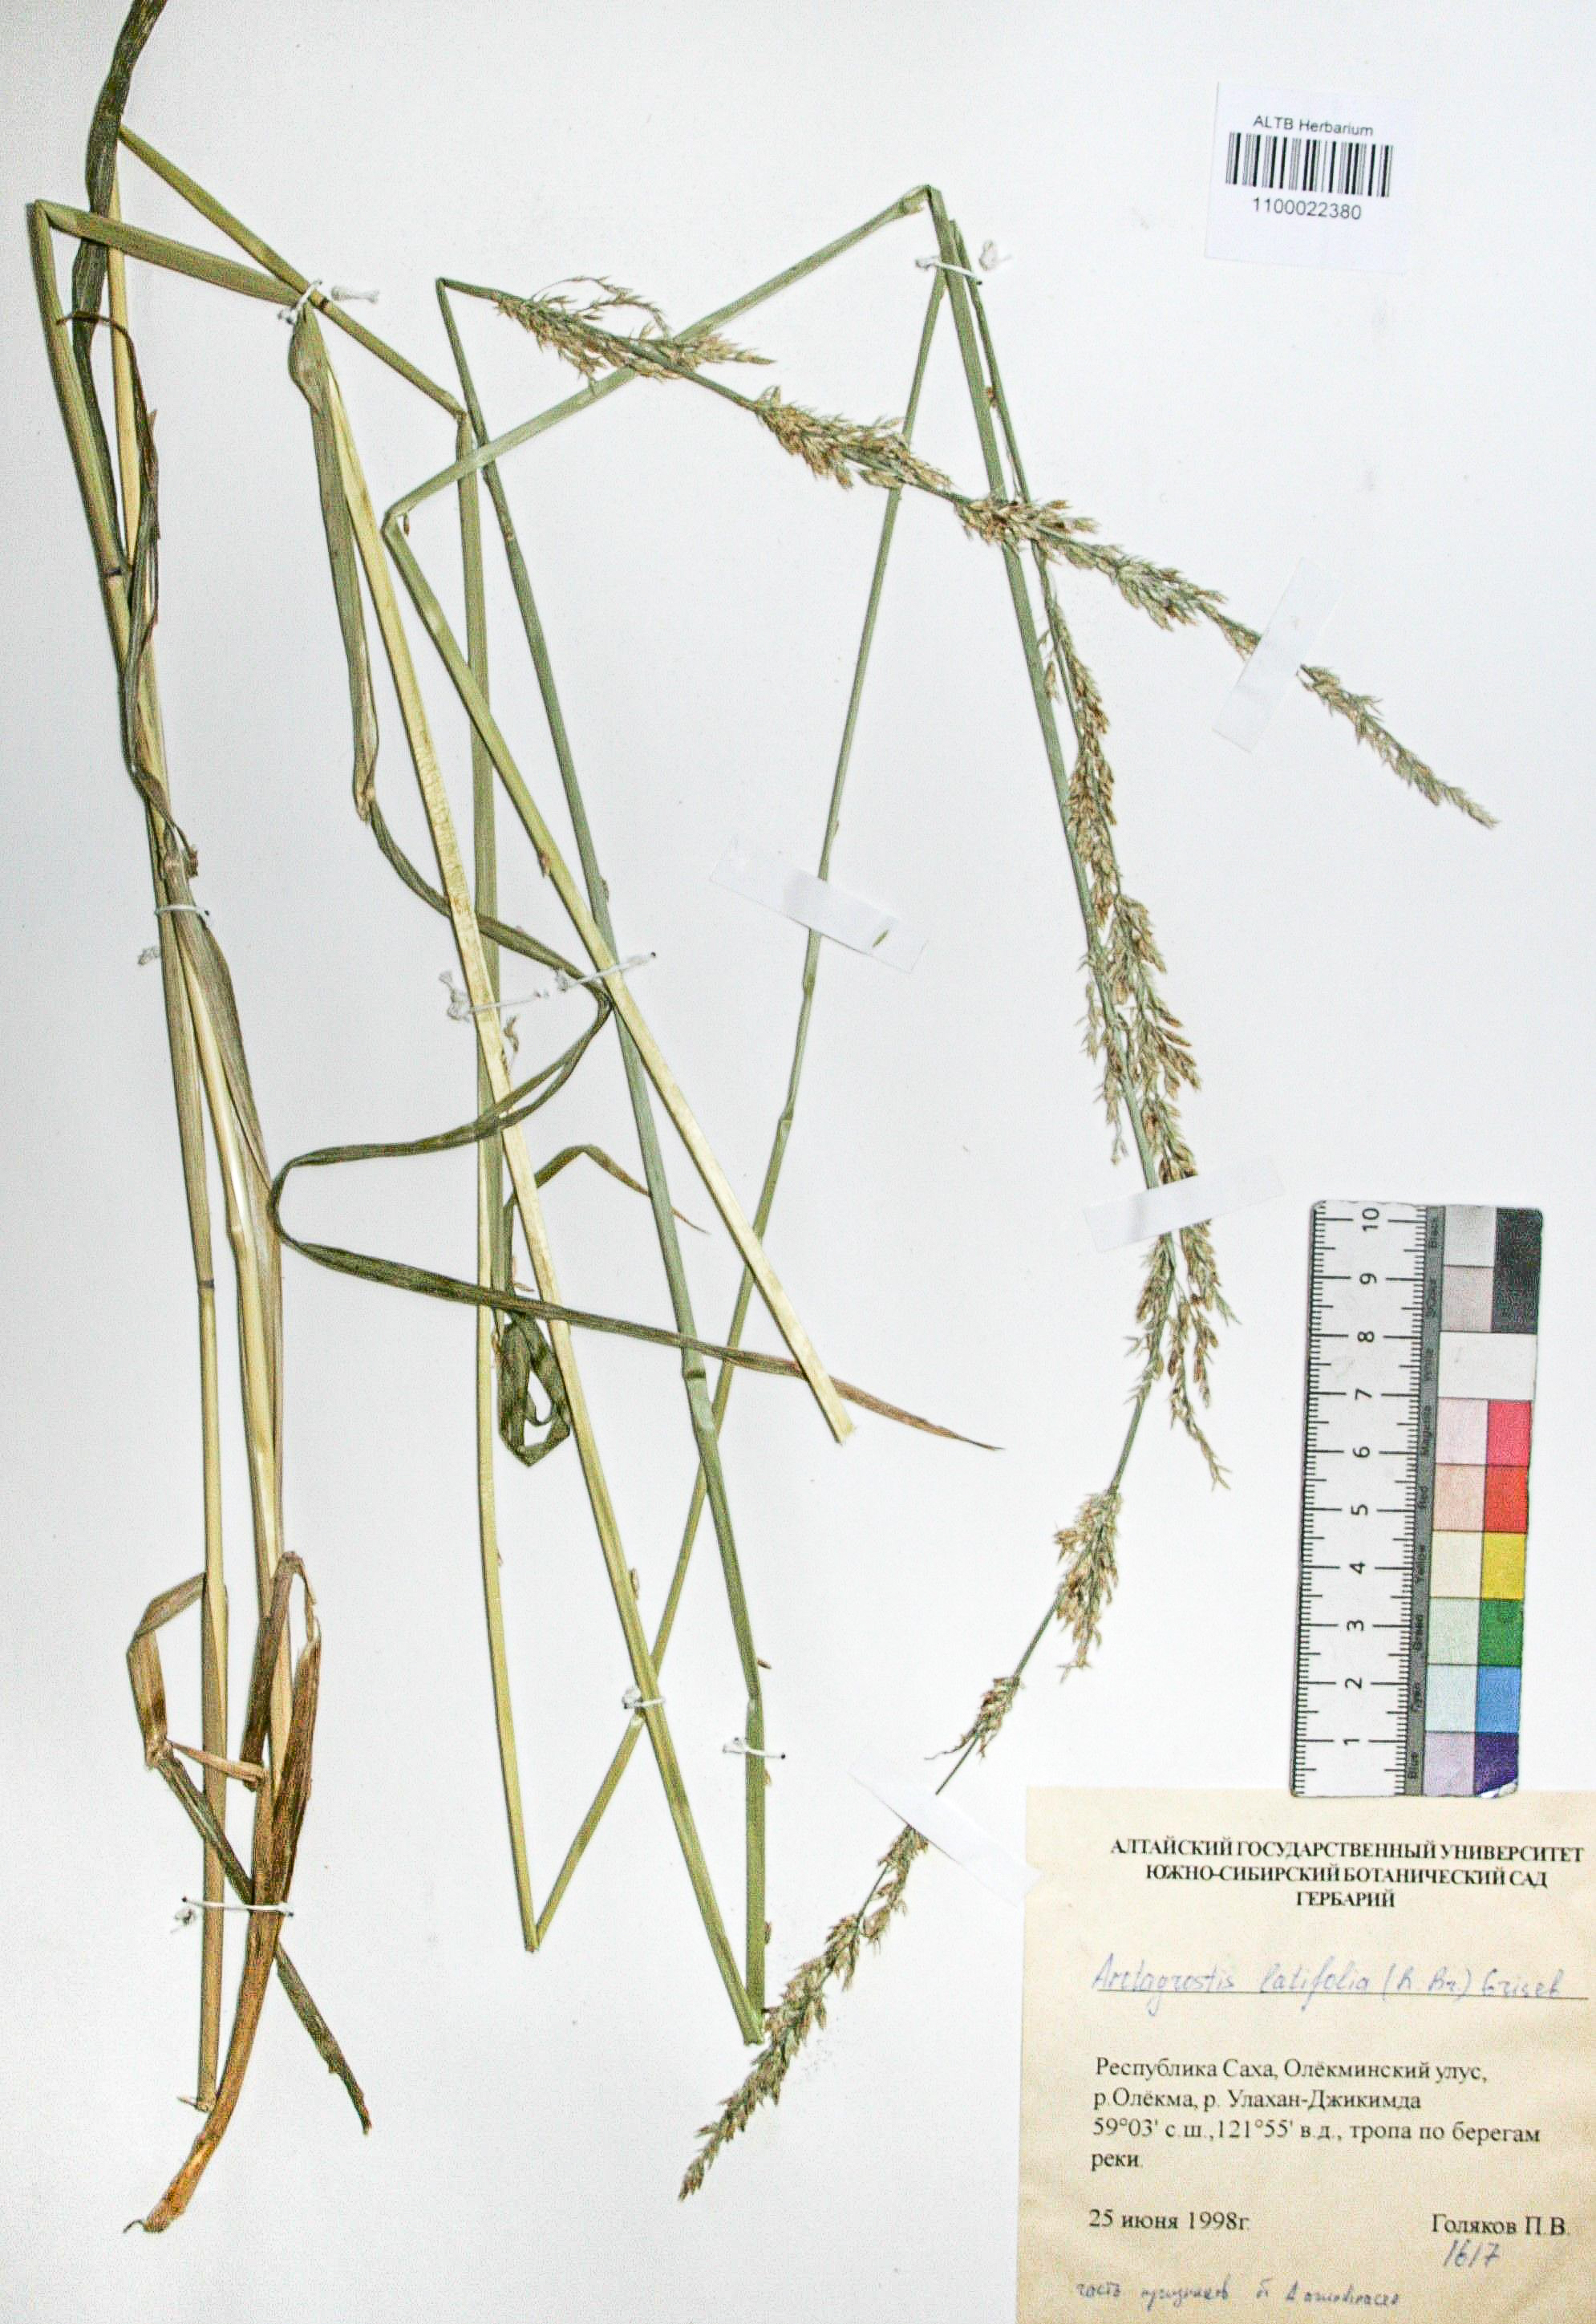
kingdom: Plantae
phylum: Tracheophyta
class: Liliopsida
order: Poales
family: Poaceae
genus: Arctagrostis
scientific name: Arctagrostis latifolia
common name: Arctic grass
